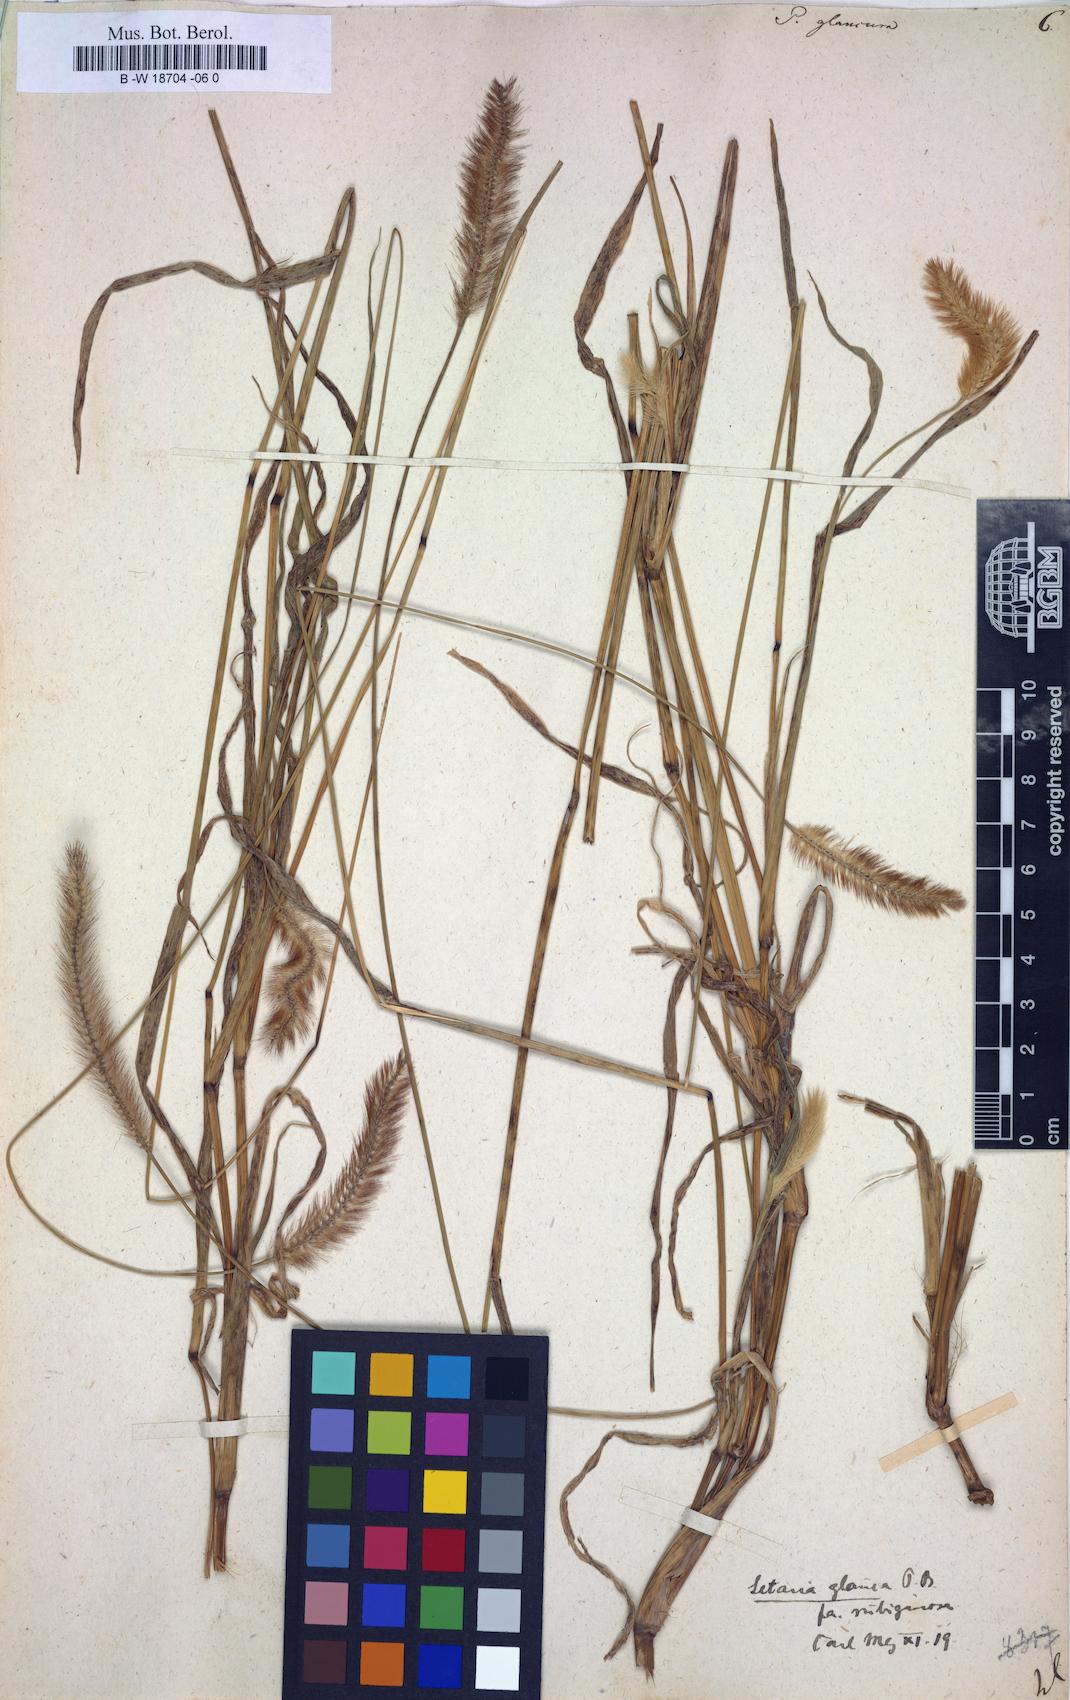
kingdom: Plantae
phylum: Tracheophyta
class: Liliopsida
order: Poales
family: Poaceae
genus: Panicum
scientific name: Panicum glaucum
